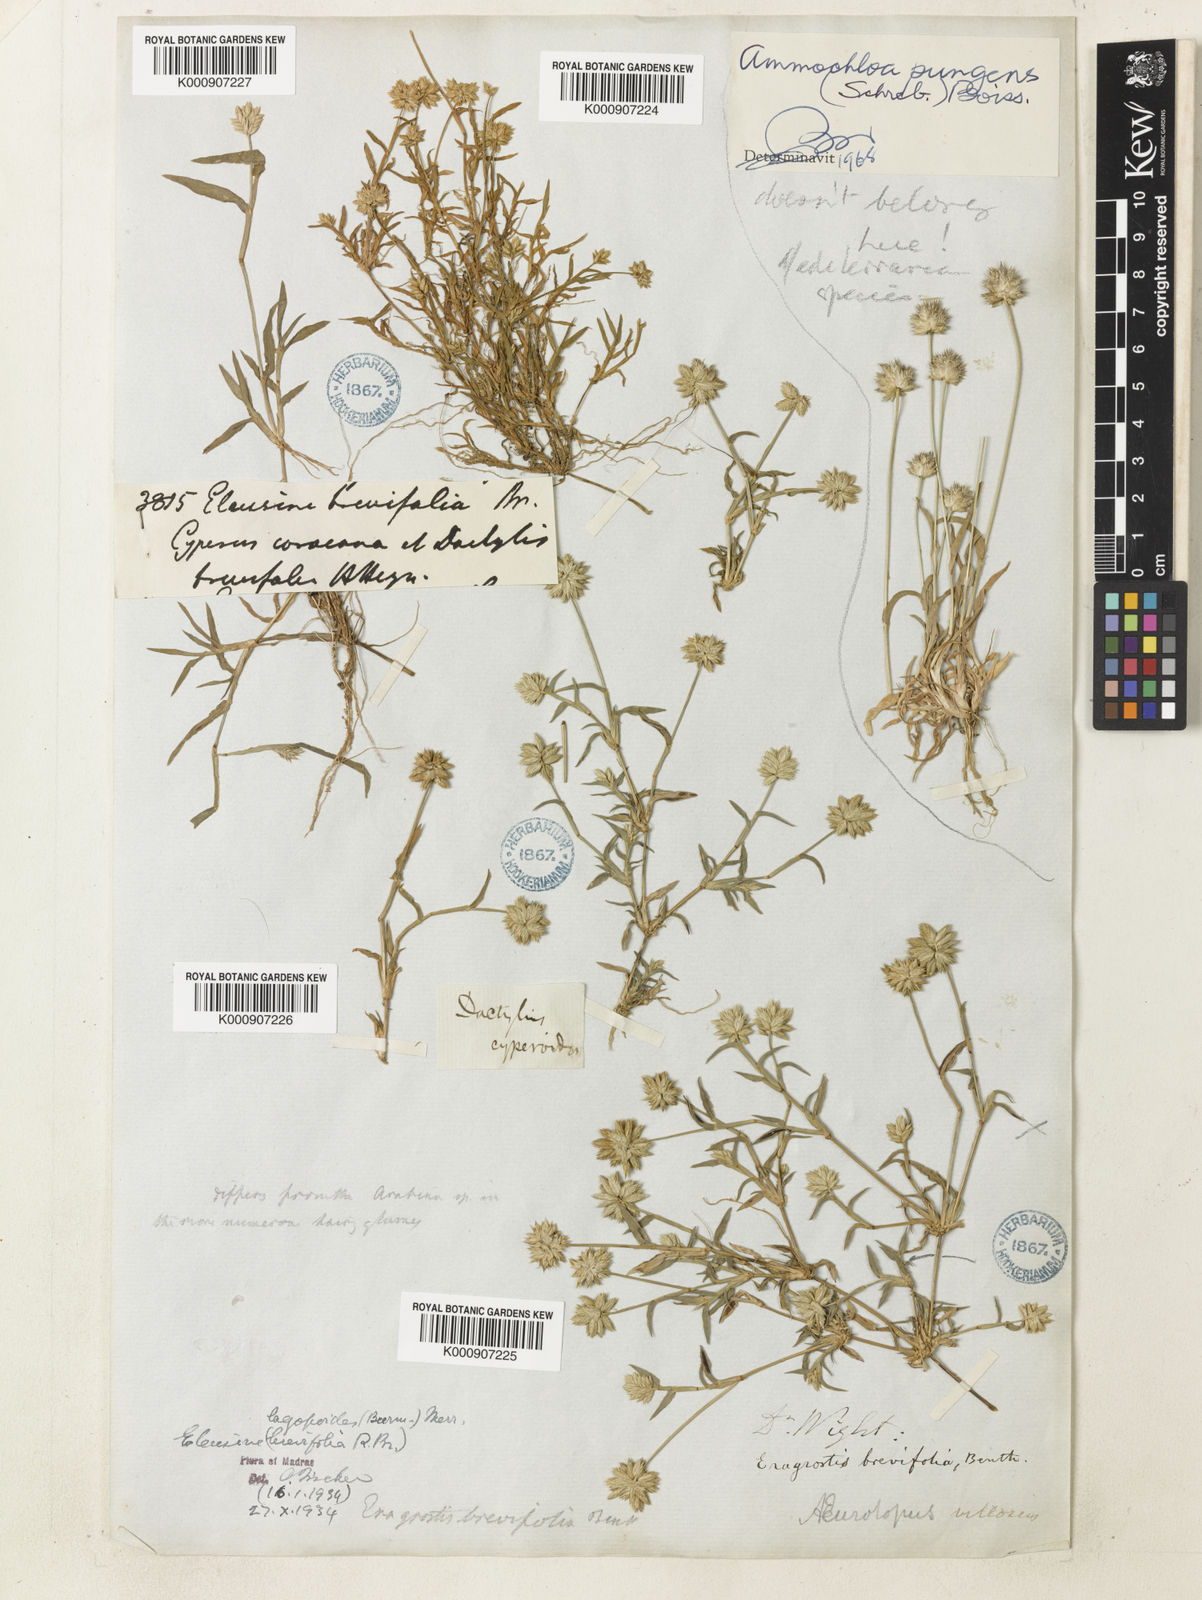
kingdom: Plantae
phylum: Tracheophyta
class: Liliopsida
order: Poales
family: Poaceae
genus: Coelachyrum
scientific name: Coelachyrum lagopoides
